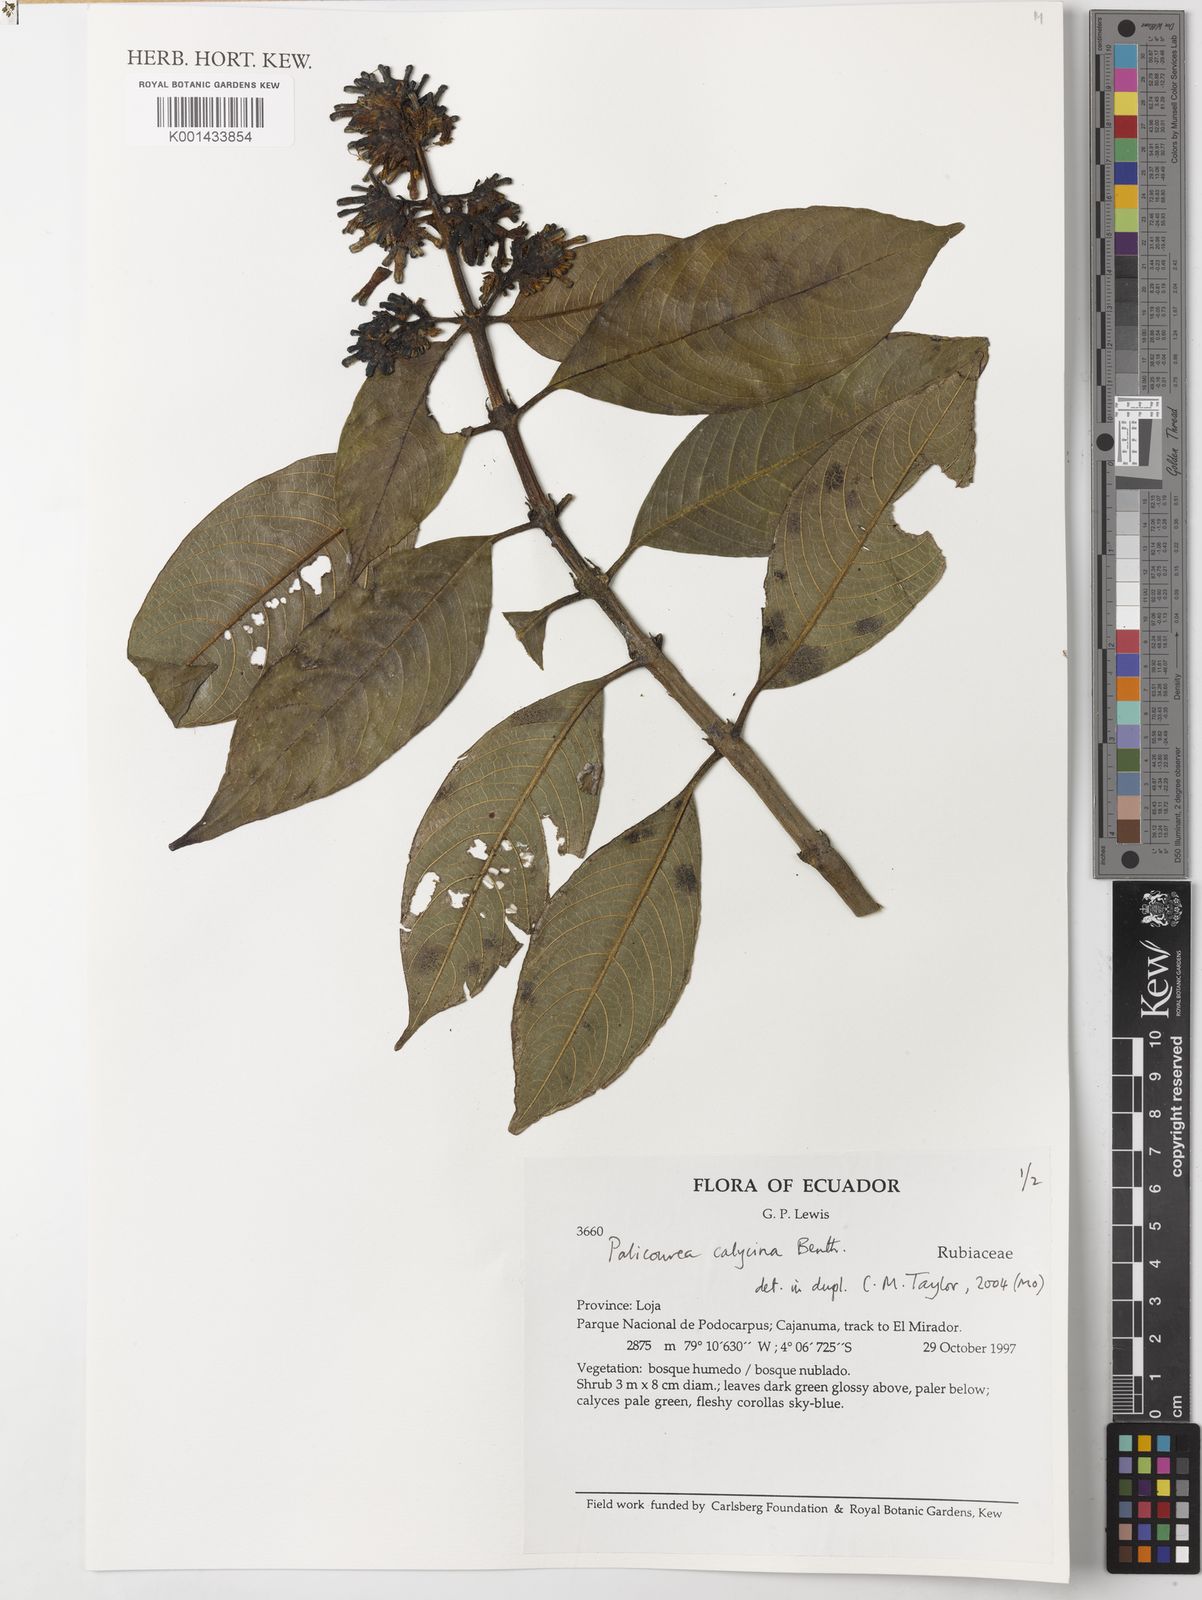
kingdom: Plantae
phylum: Tracheophyta
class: Magnoliopsida
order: Gentianales
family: Rubiaceae
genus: Palicourea
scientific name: Palicourea calycina
